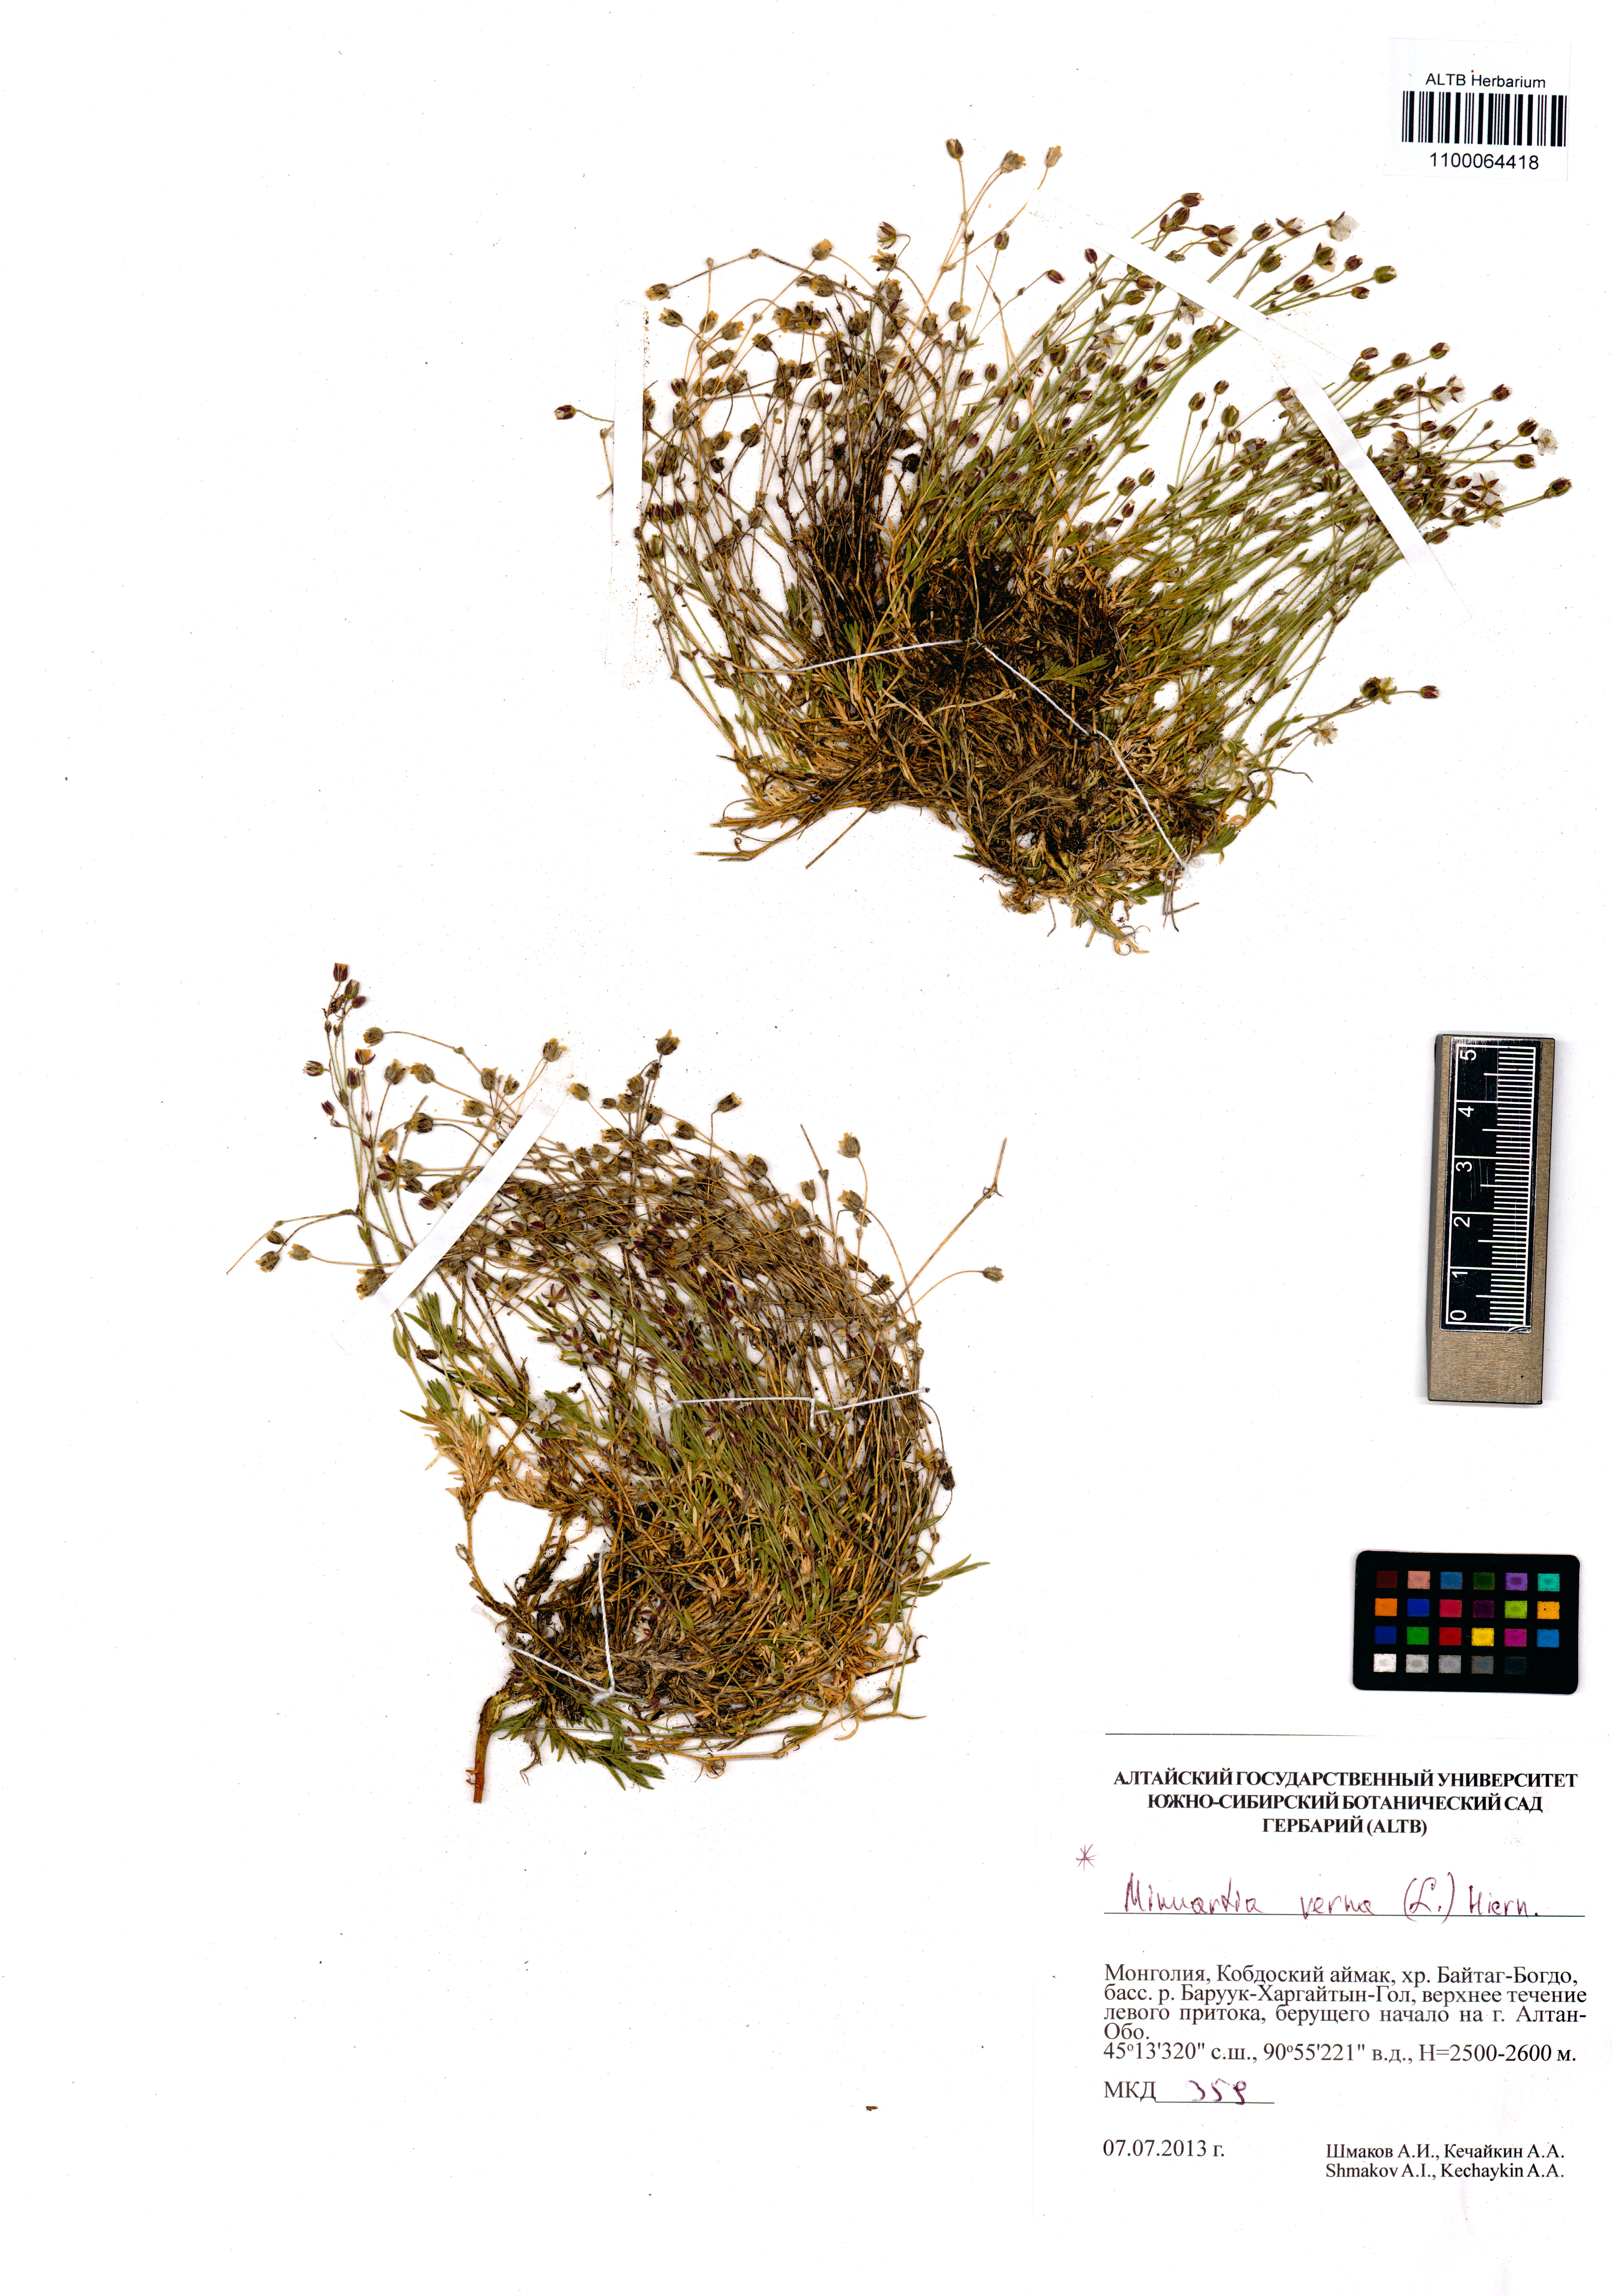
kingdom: Plantae
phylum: Tracheophyta
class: Magnoliopsida
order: Caryophyllales
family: Caryophyllaceae
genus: Sabulina
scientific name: Sabulina verna
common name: Spring sandwort
